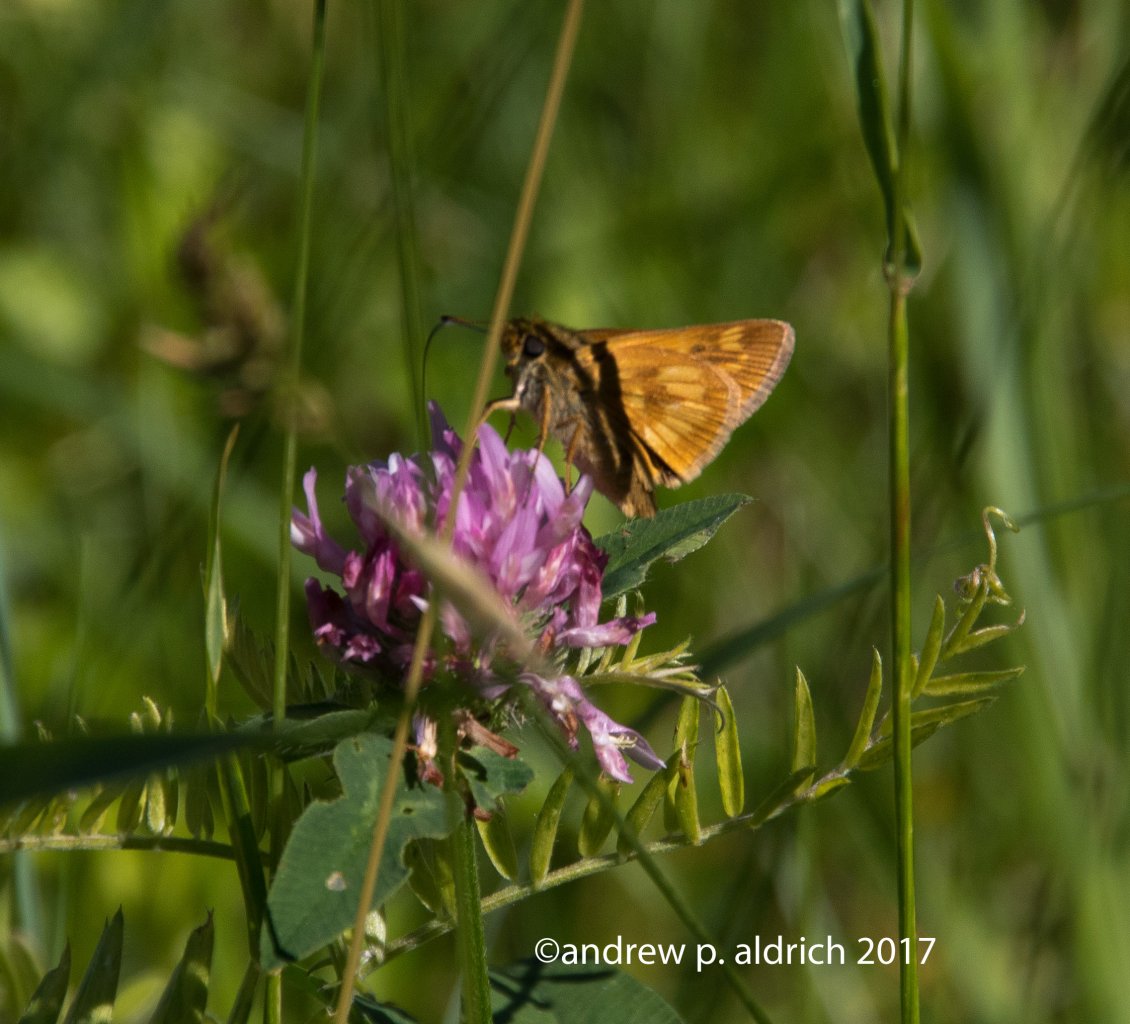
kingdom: Animalia
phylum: Arthropoda
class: Insecta
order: Lepidoptera
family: Hesperiidae
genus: Polites
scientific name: Polites
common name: Long Dash Skipper
